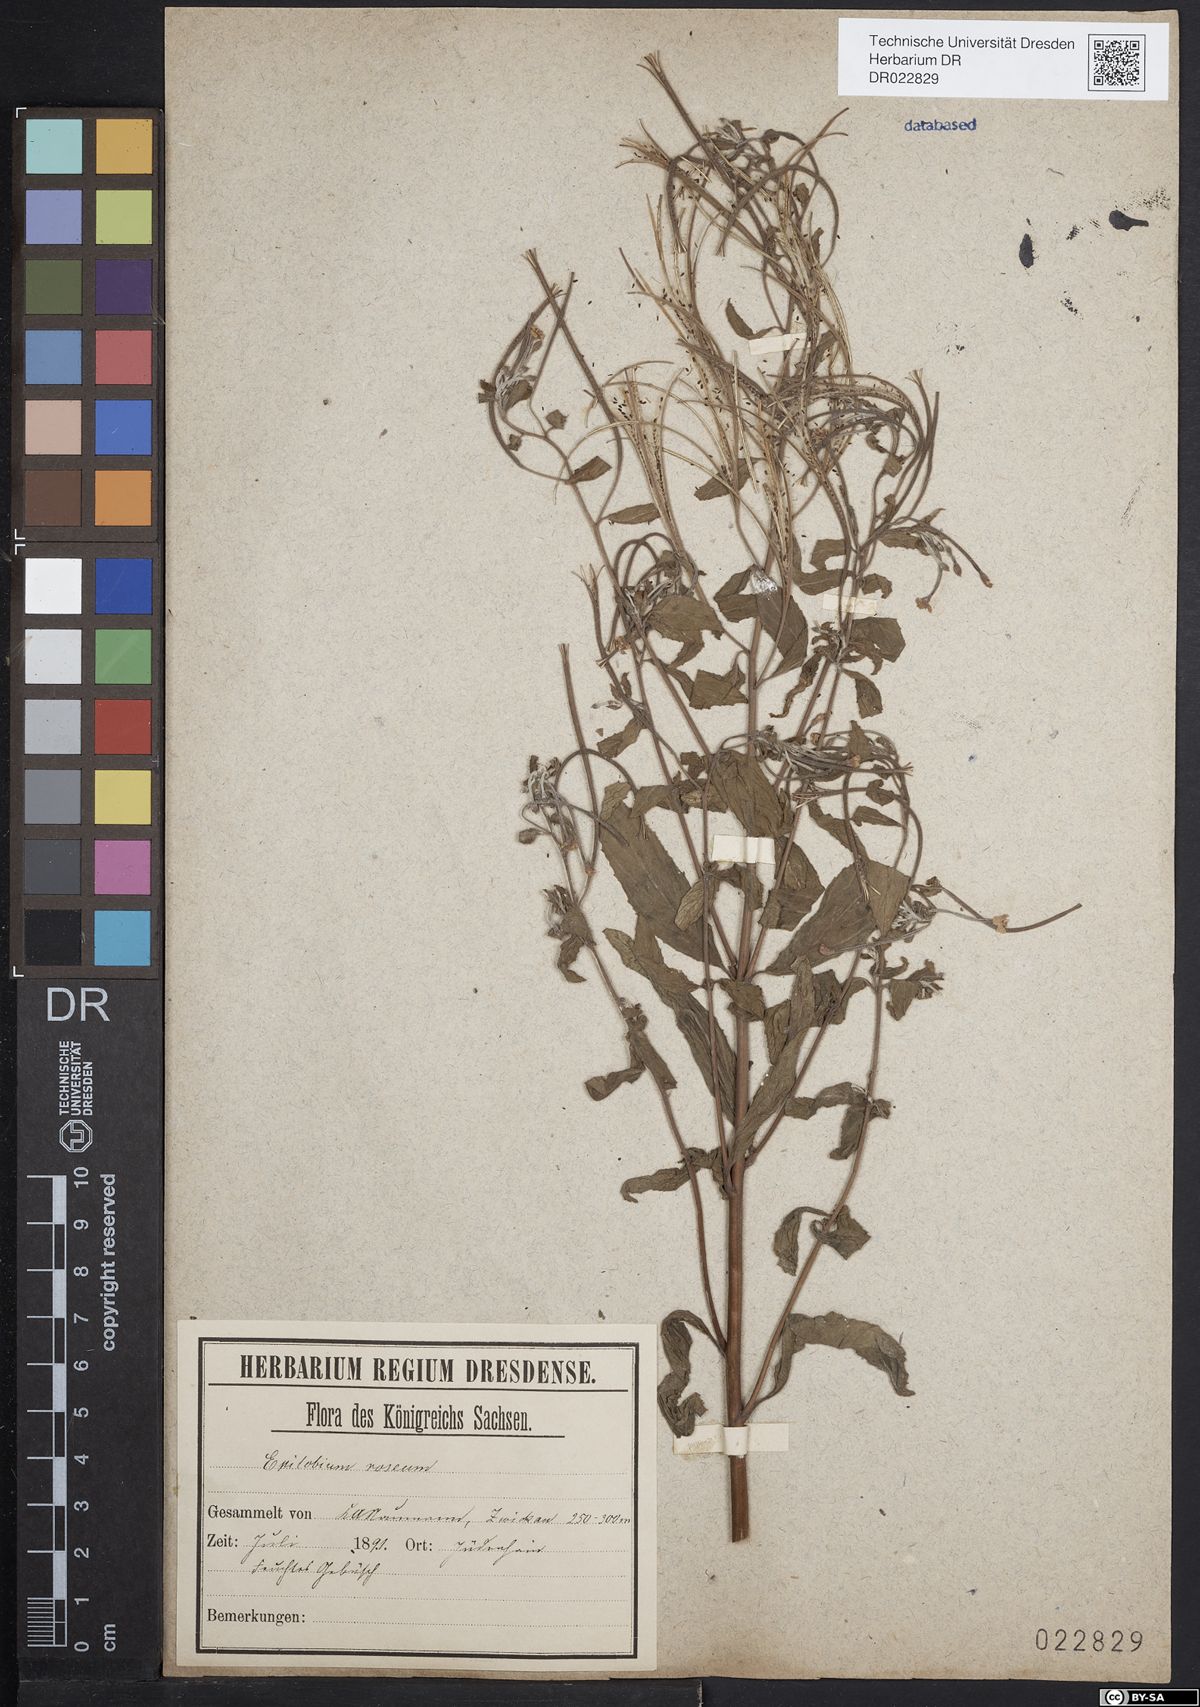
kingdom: Plantae
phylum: Tracheophyta
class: Magnoliopsida
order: Myrtales
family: Onagraceae
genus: Epilobium
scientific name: Epilobium roseum
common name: Pale willowherb
